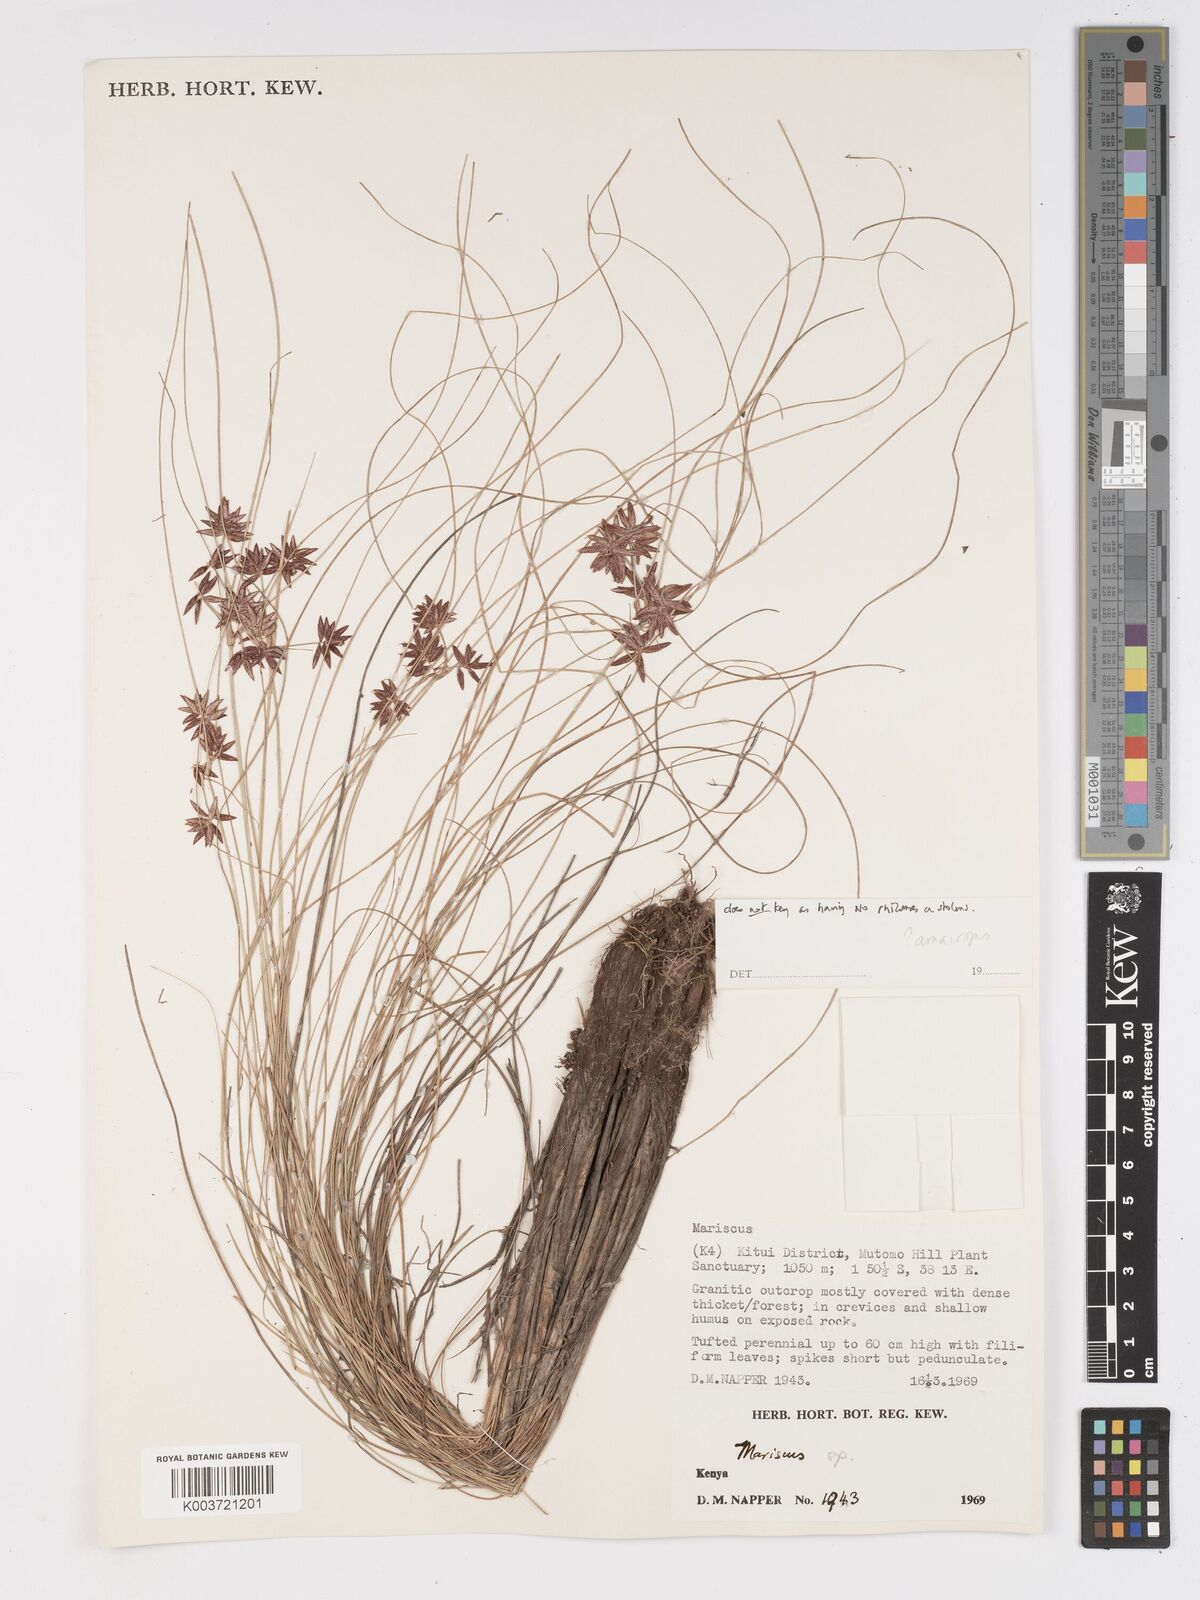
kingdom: Plantae
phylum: Tracheophyta
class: Liliopsida
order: Poales
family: Cyperaceae
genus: Cyperus
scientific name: Cyperus amauropus
